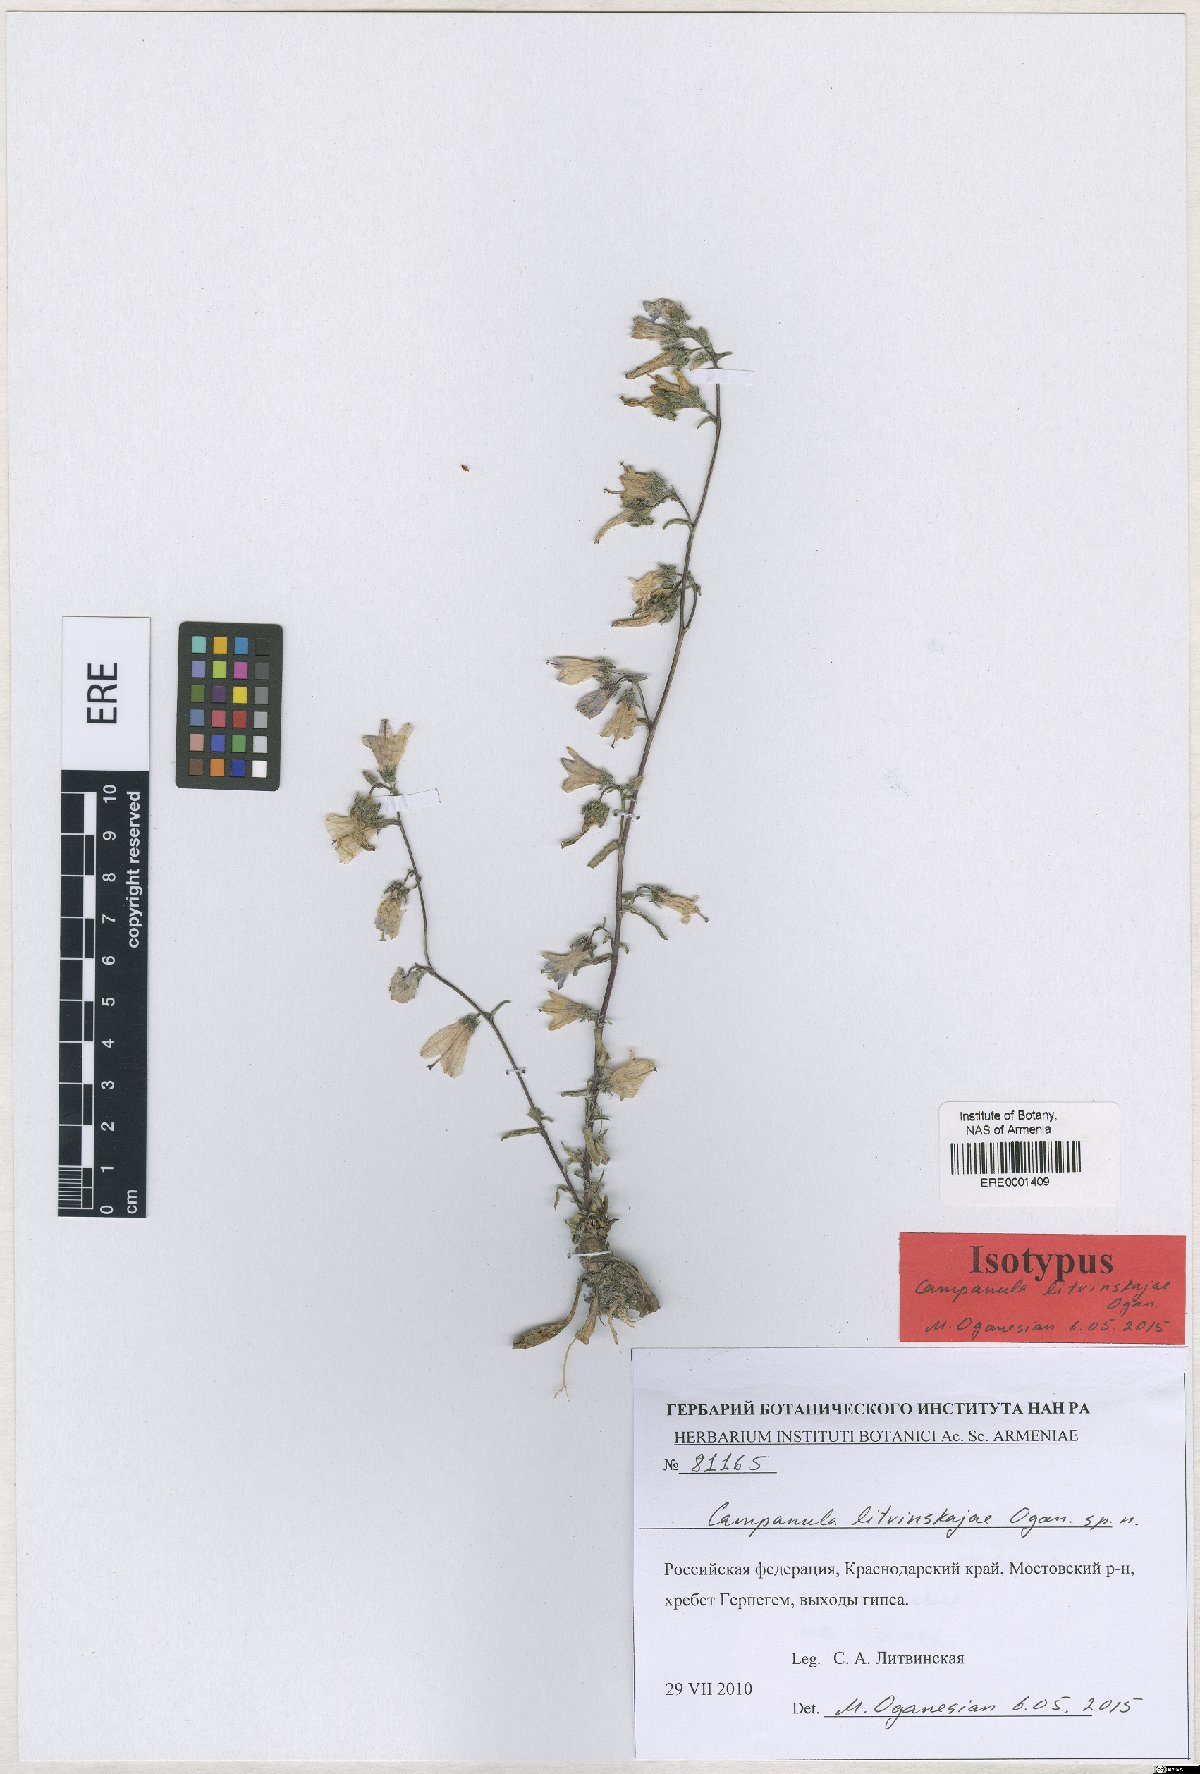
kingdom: Plantae
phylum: Tracheophyta
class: Magnoliopsida
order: Asterales
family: Campanulaceae
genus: Campanula
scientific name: Campanula litvinskajae
